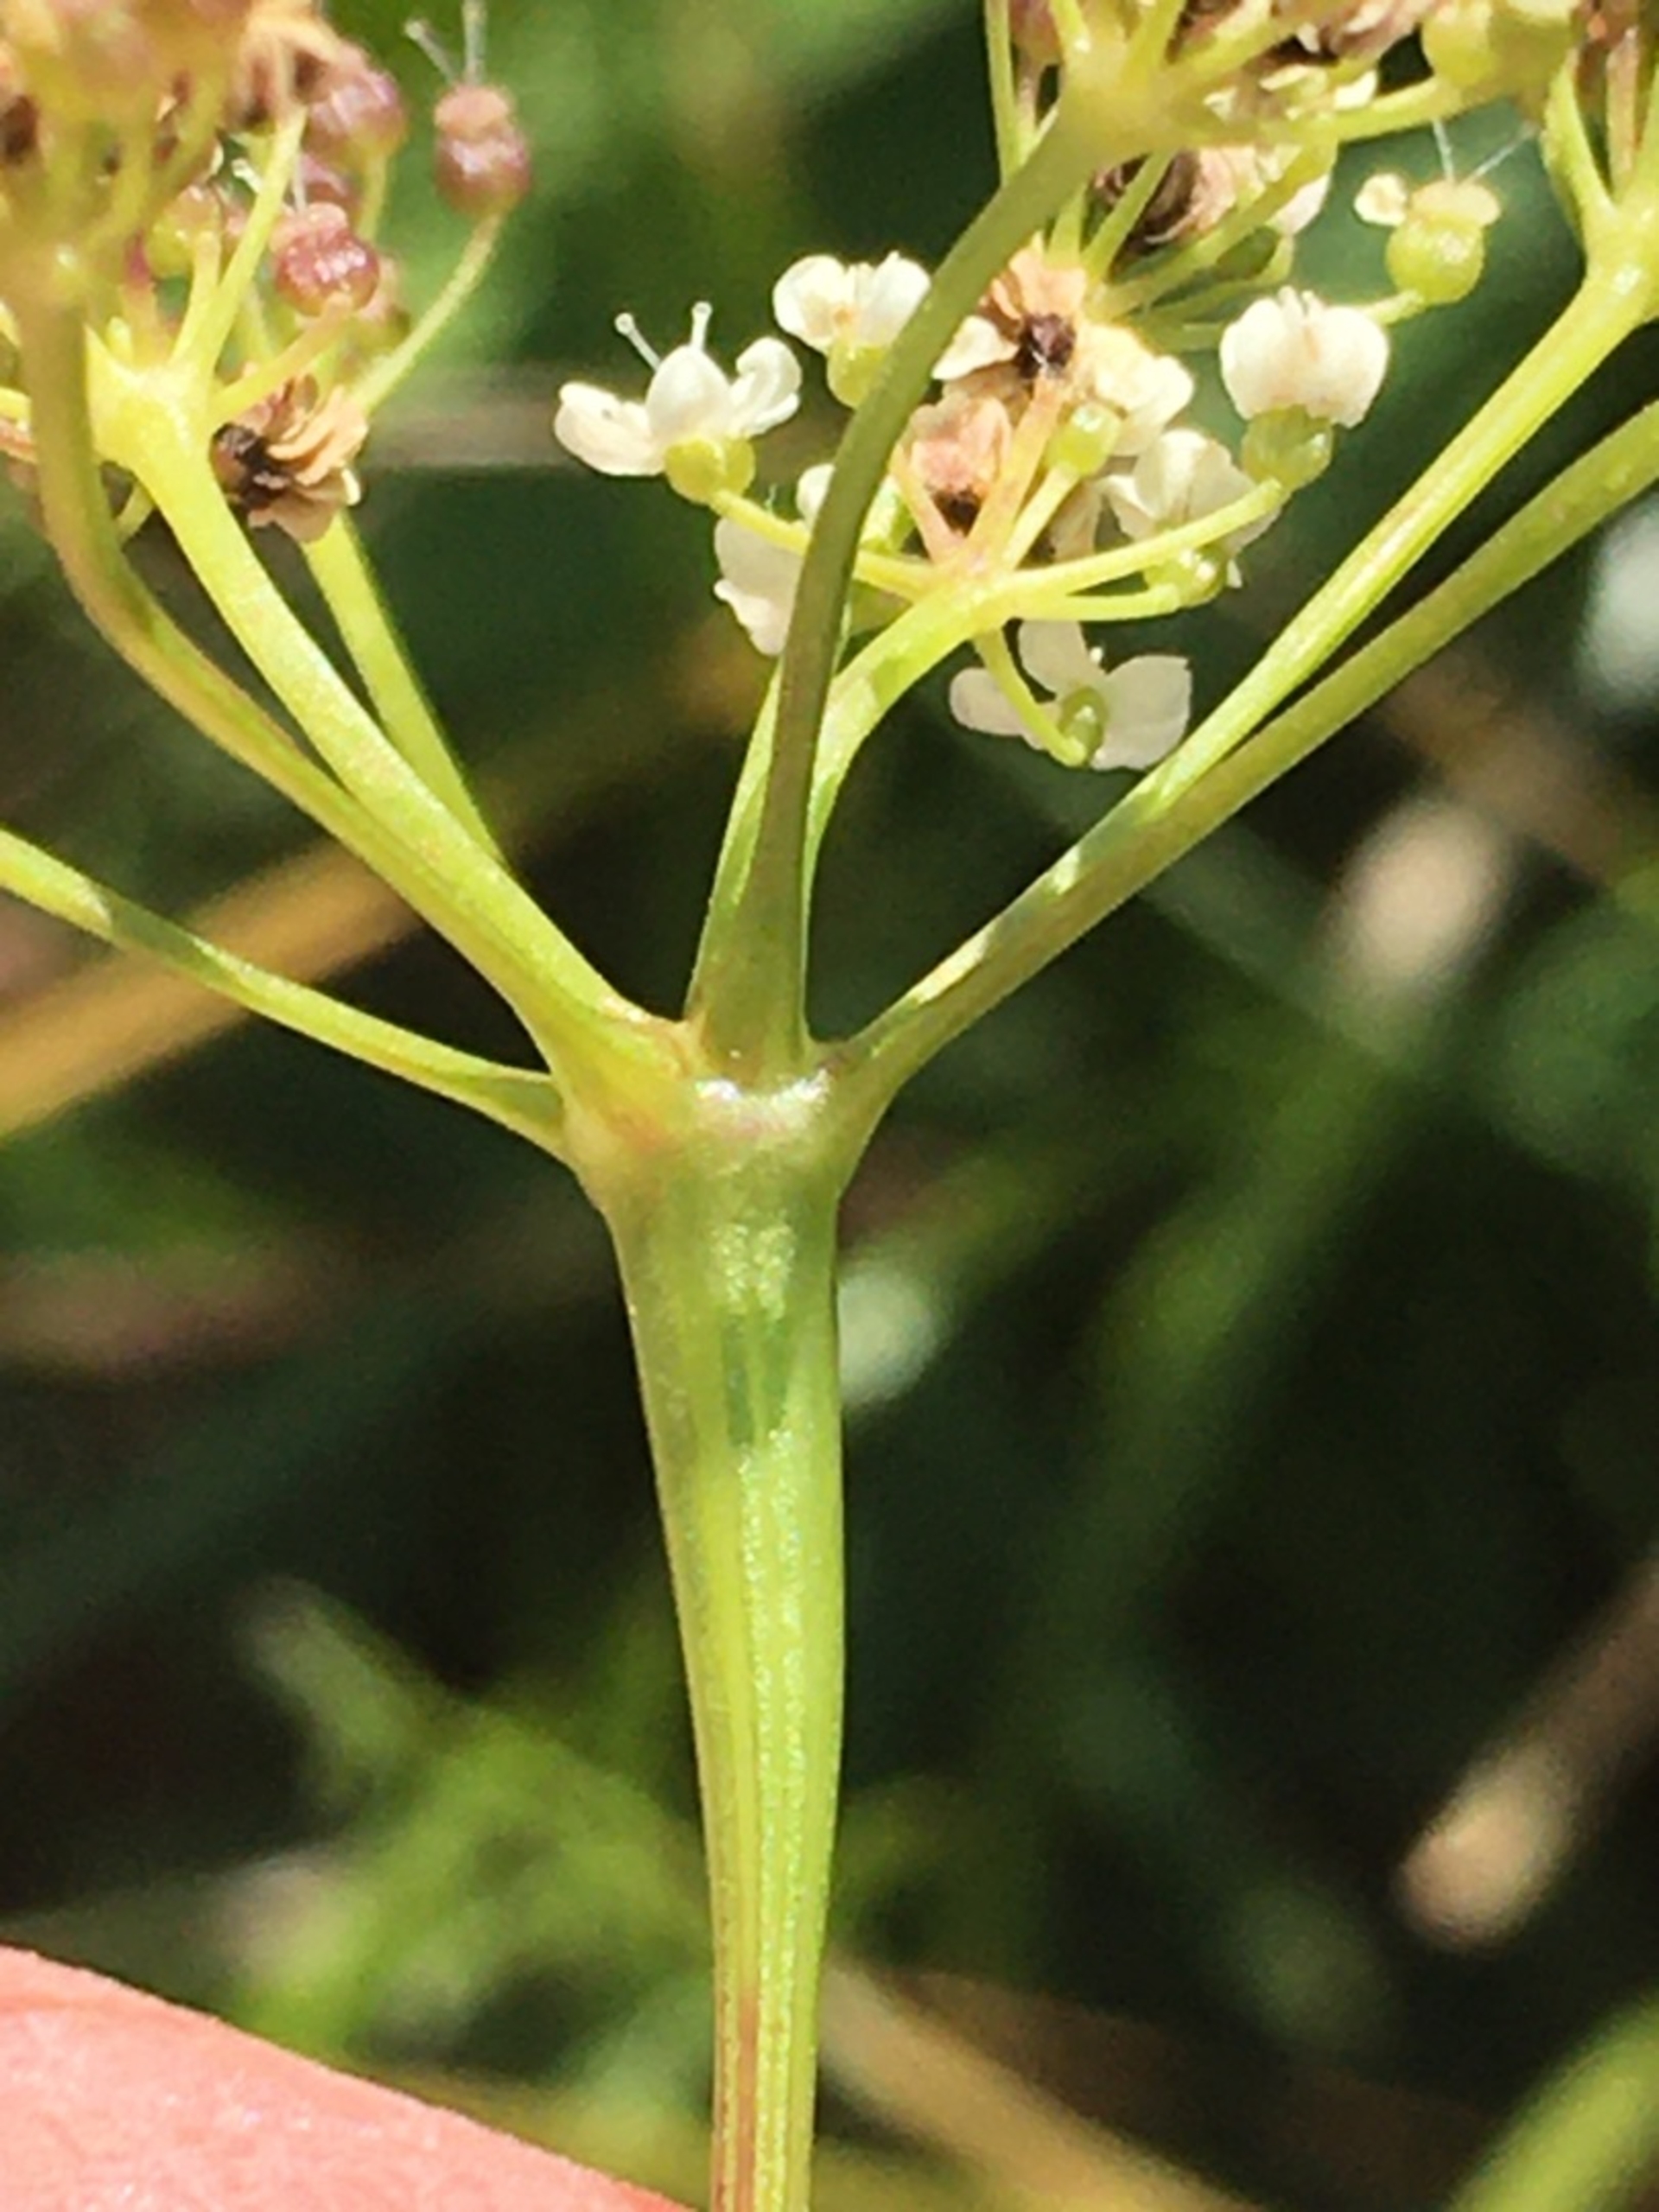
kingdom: Animalia
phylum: Arthropoda
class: Insecta
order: Diptera
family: Cecidomyiidae
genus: Lasioptera
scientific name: Lasioptera carophila
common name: Skærmgalmyg
